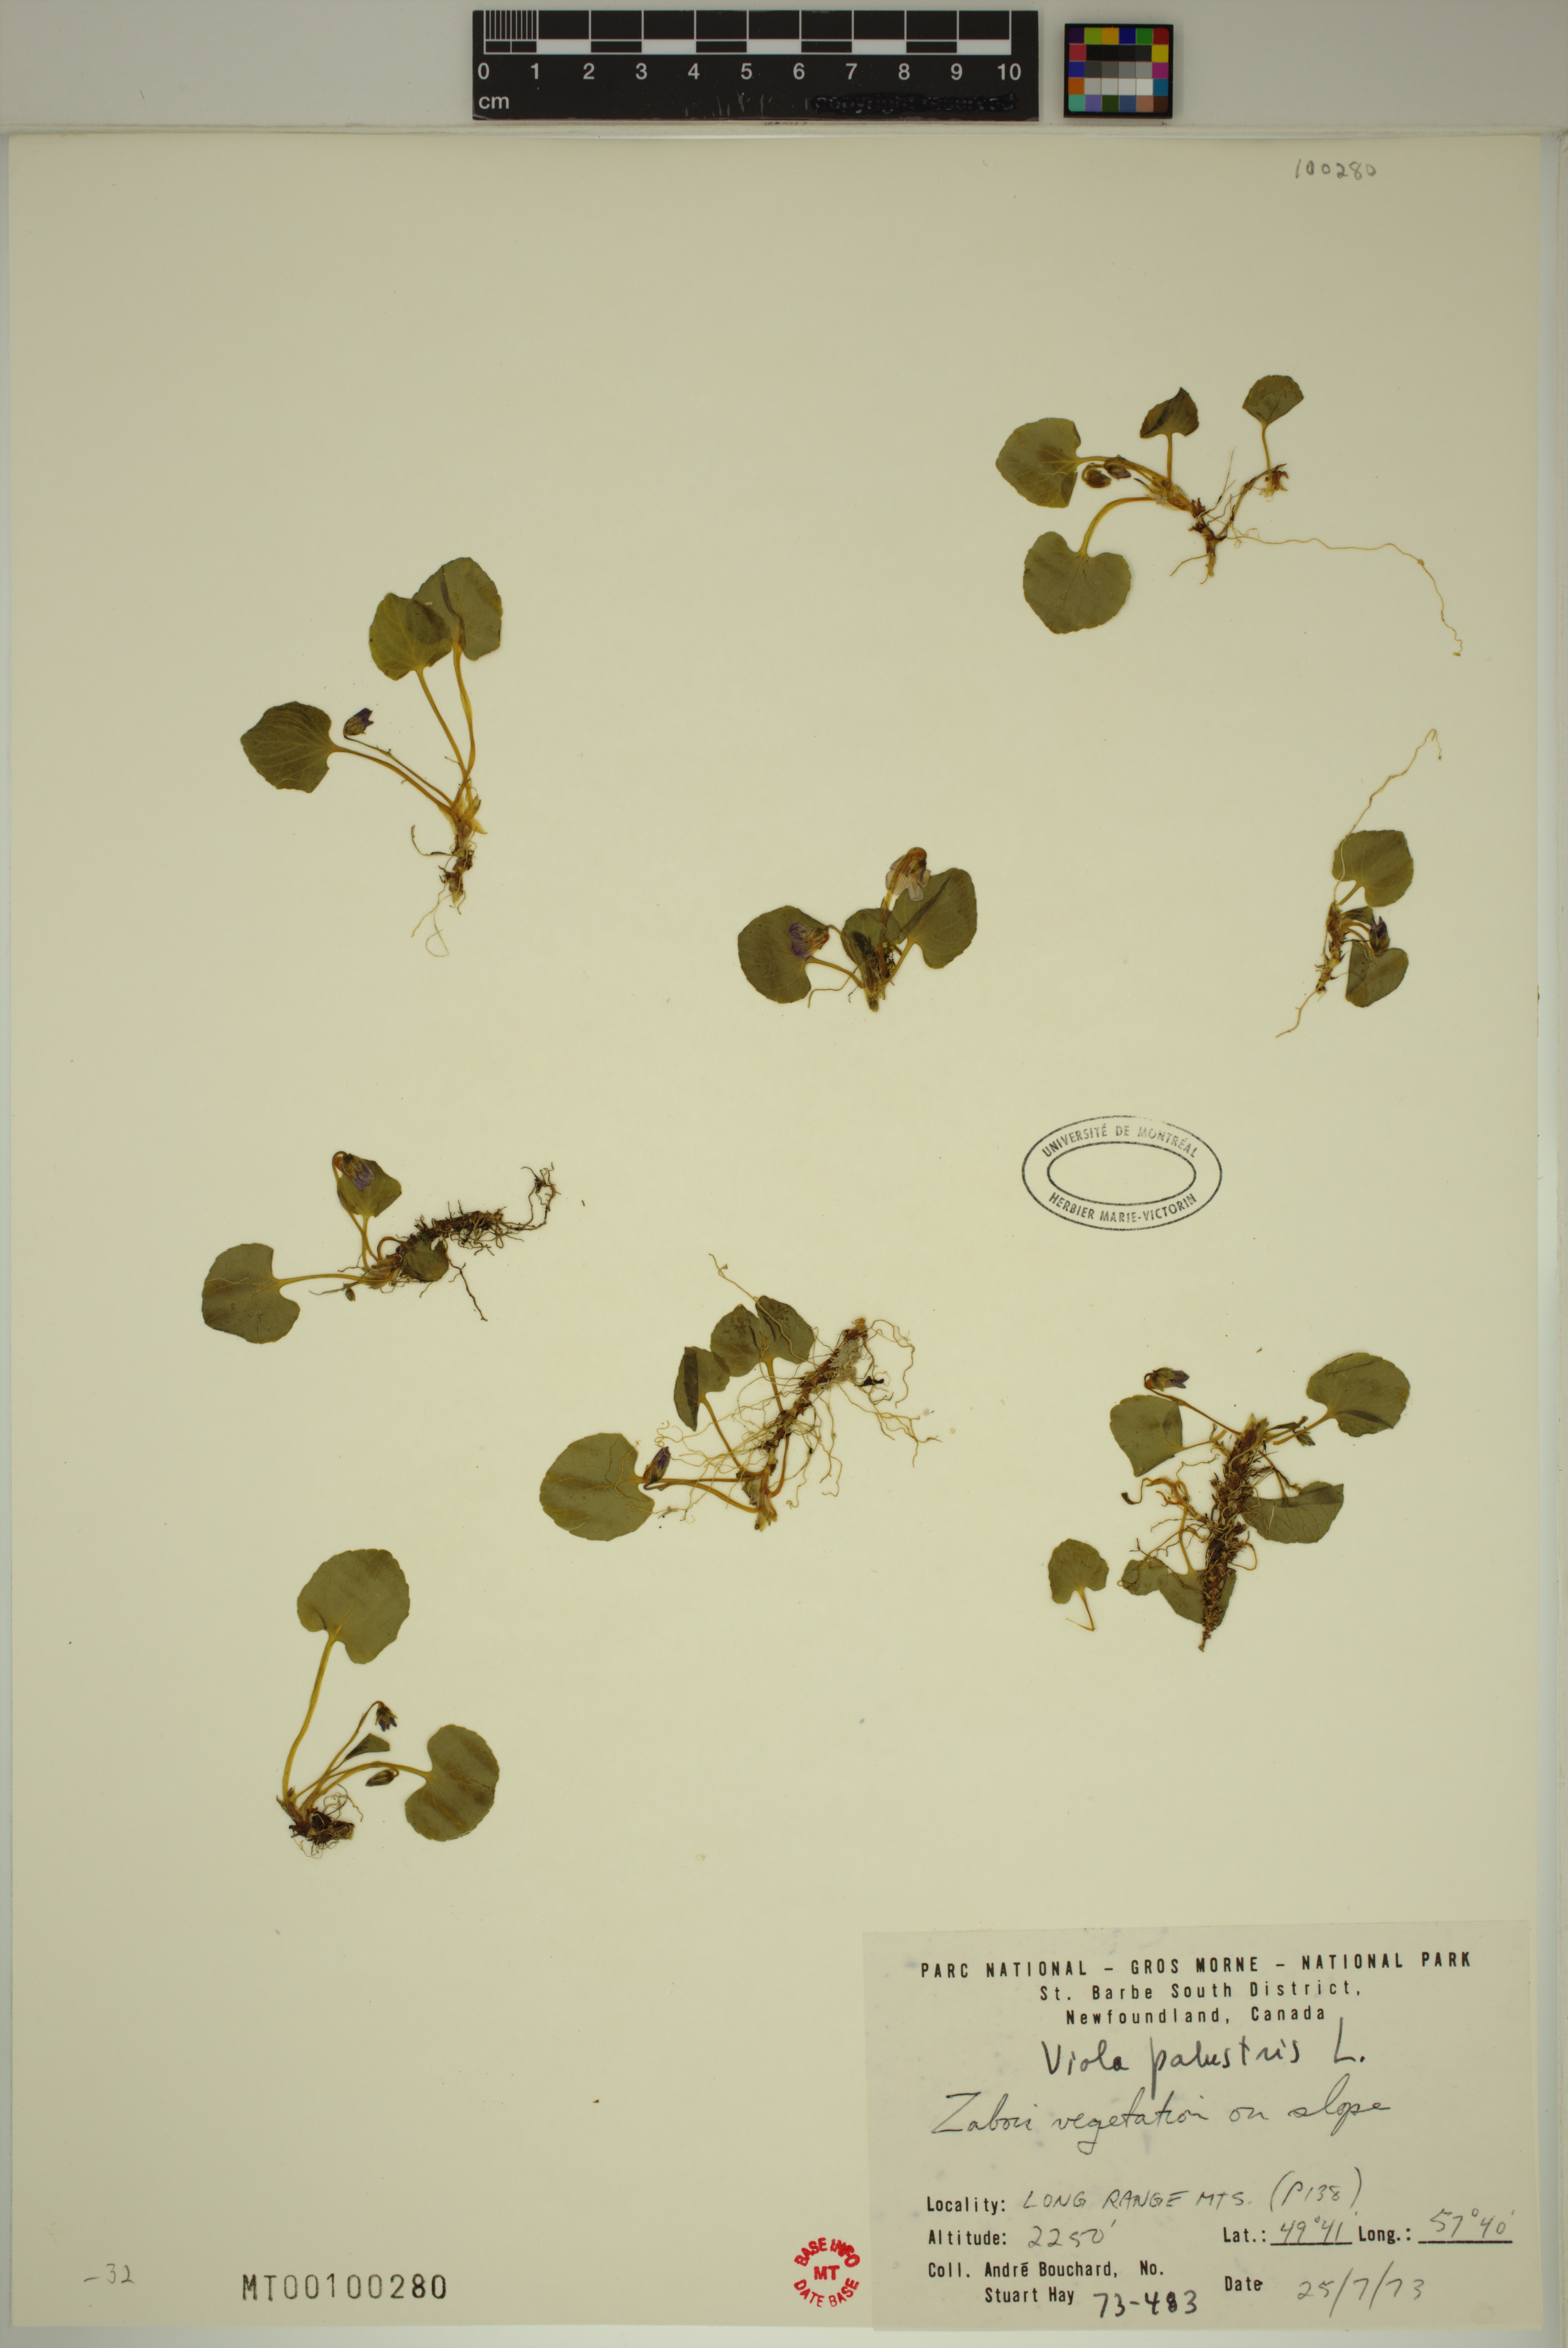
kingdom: Plantae
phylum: Tracheophyta
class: Magnoliopsida
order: Malpighiales
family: Violaceae
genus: Viola
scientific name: Viola palustris
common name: Marsh violet
